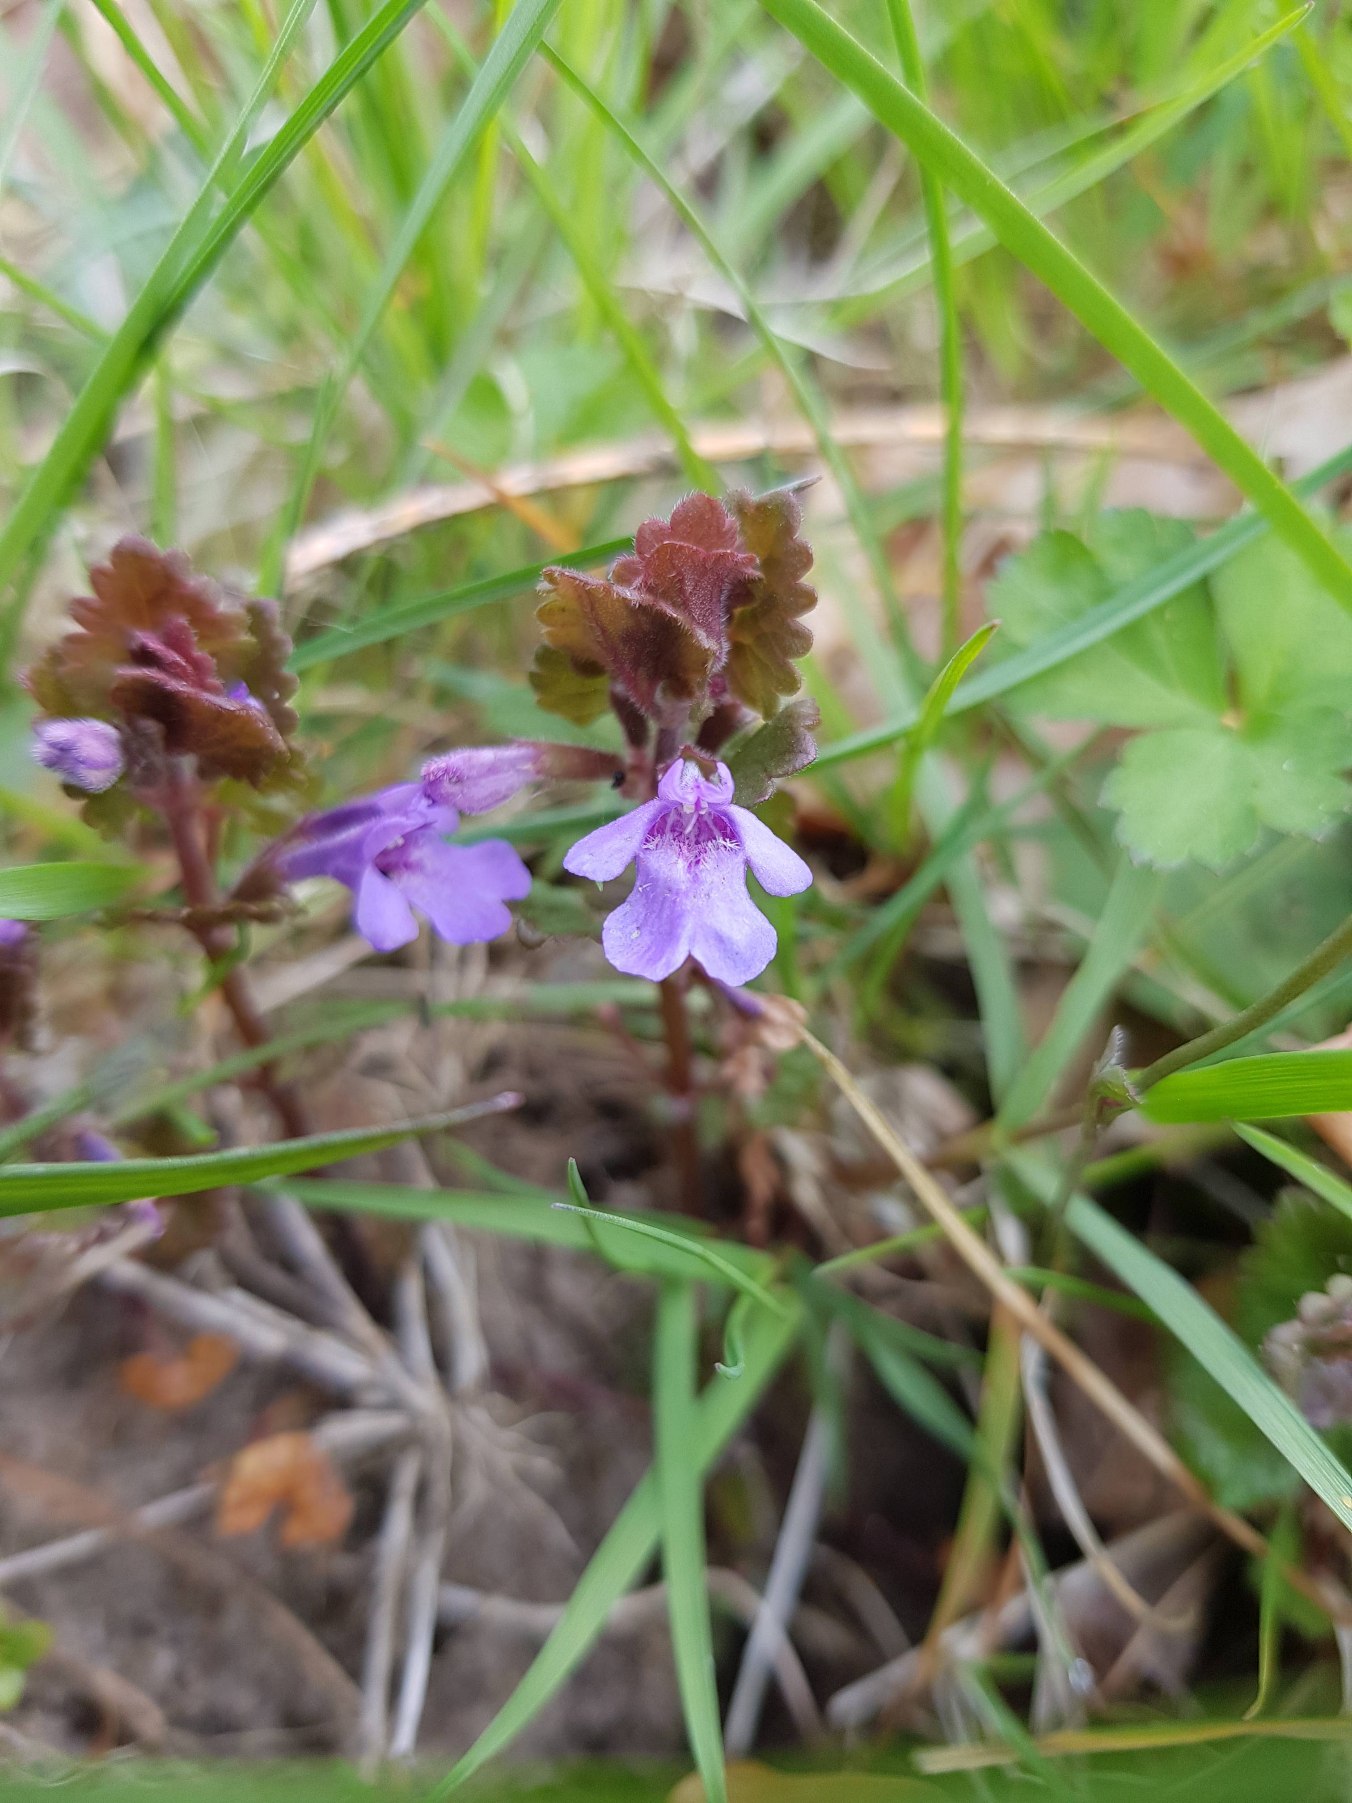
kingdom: Plantae
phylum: Tracheophyta
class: Magnoliopsida
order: Lamiales
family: Lamiaceae
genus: Glechoma
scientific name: Glechoma hederacea
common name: Korsknap
